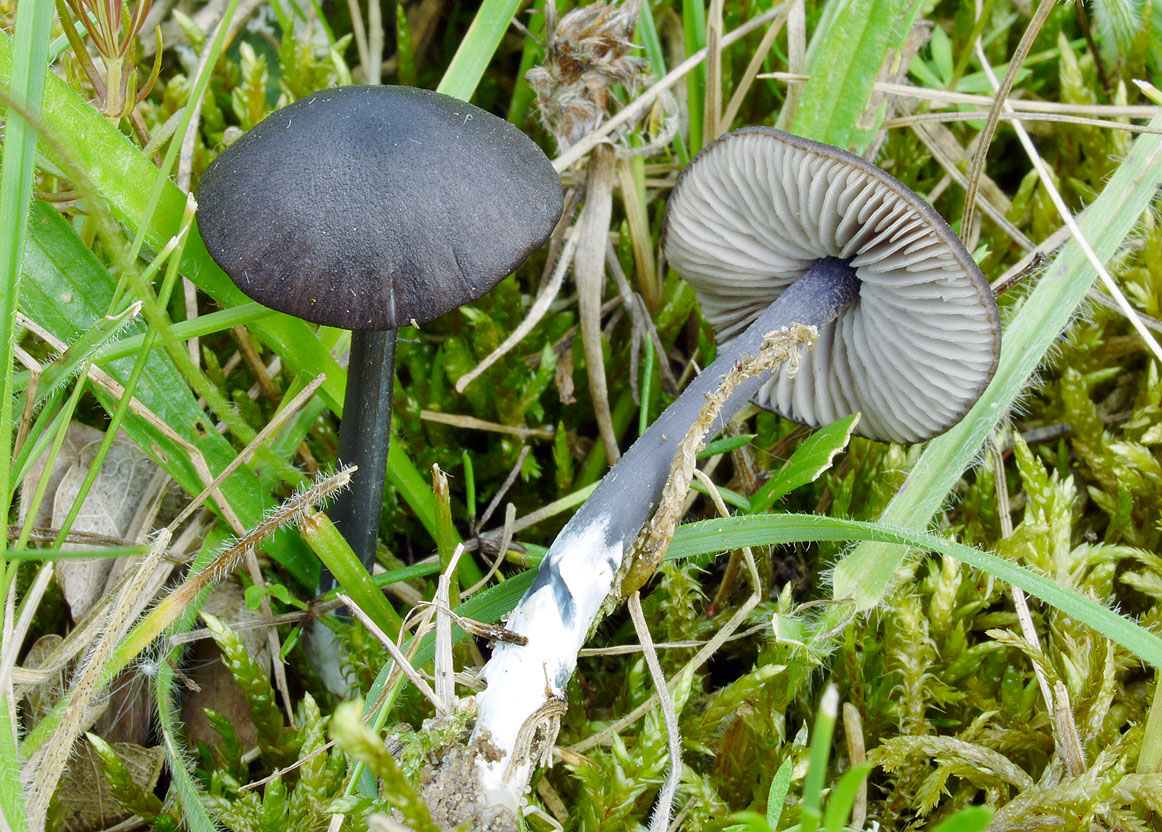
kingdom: Fungi
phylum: Basidiomycota
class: Agaricomycetes
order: Agaricales
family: Entolomataceae
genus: Entoloma
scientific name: Entoloma chalybaeum
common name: blåbladet rødblad
